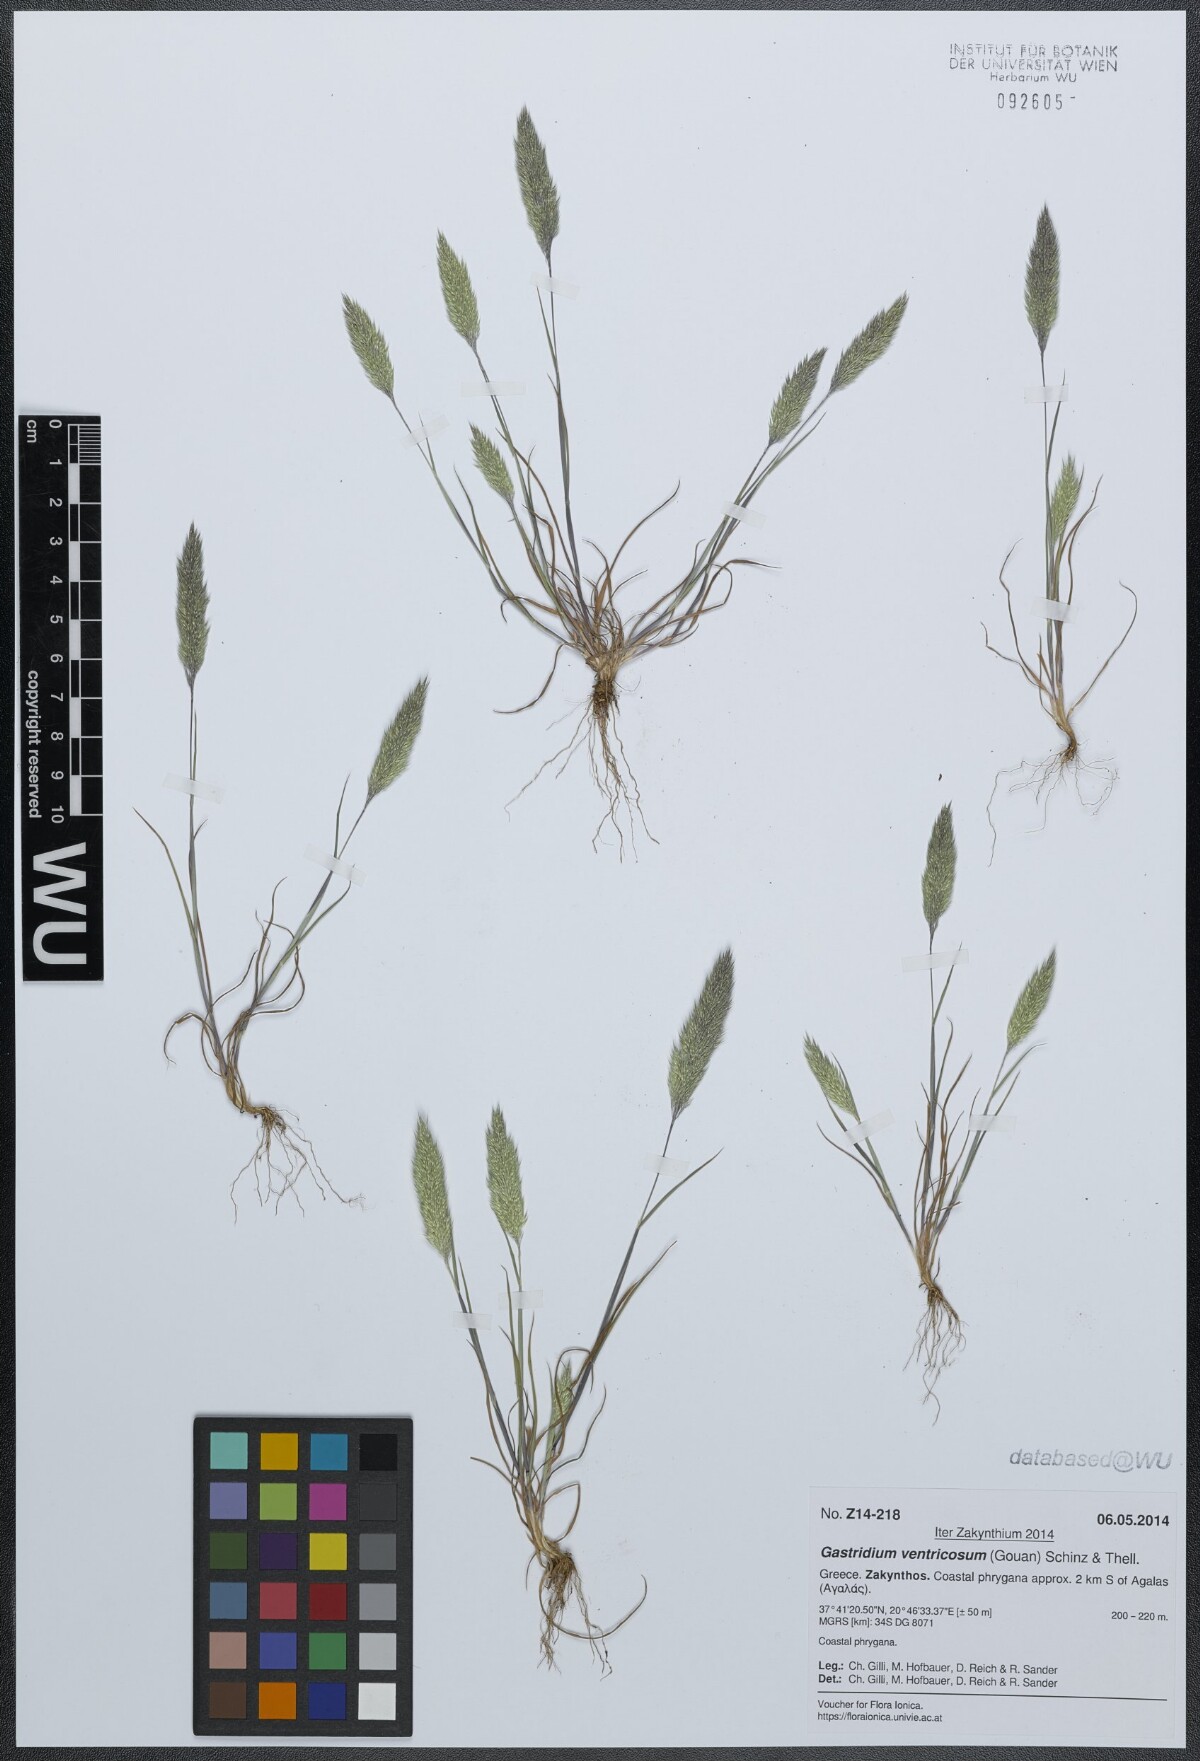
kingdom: Plantae
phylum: Tracheophyta
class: Liliopsida
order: Poales
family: Poaceae
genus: Gastridium
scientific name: Gastridium ventricosum
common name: Nit-grass
